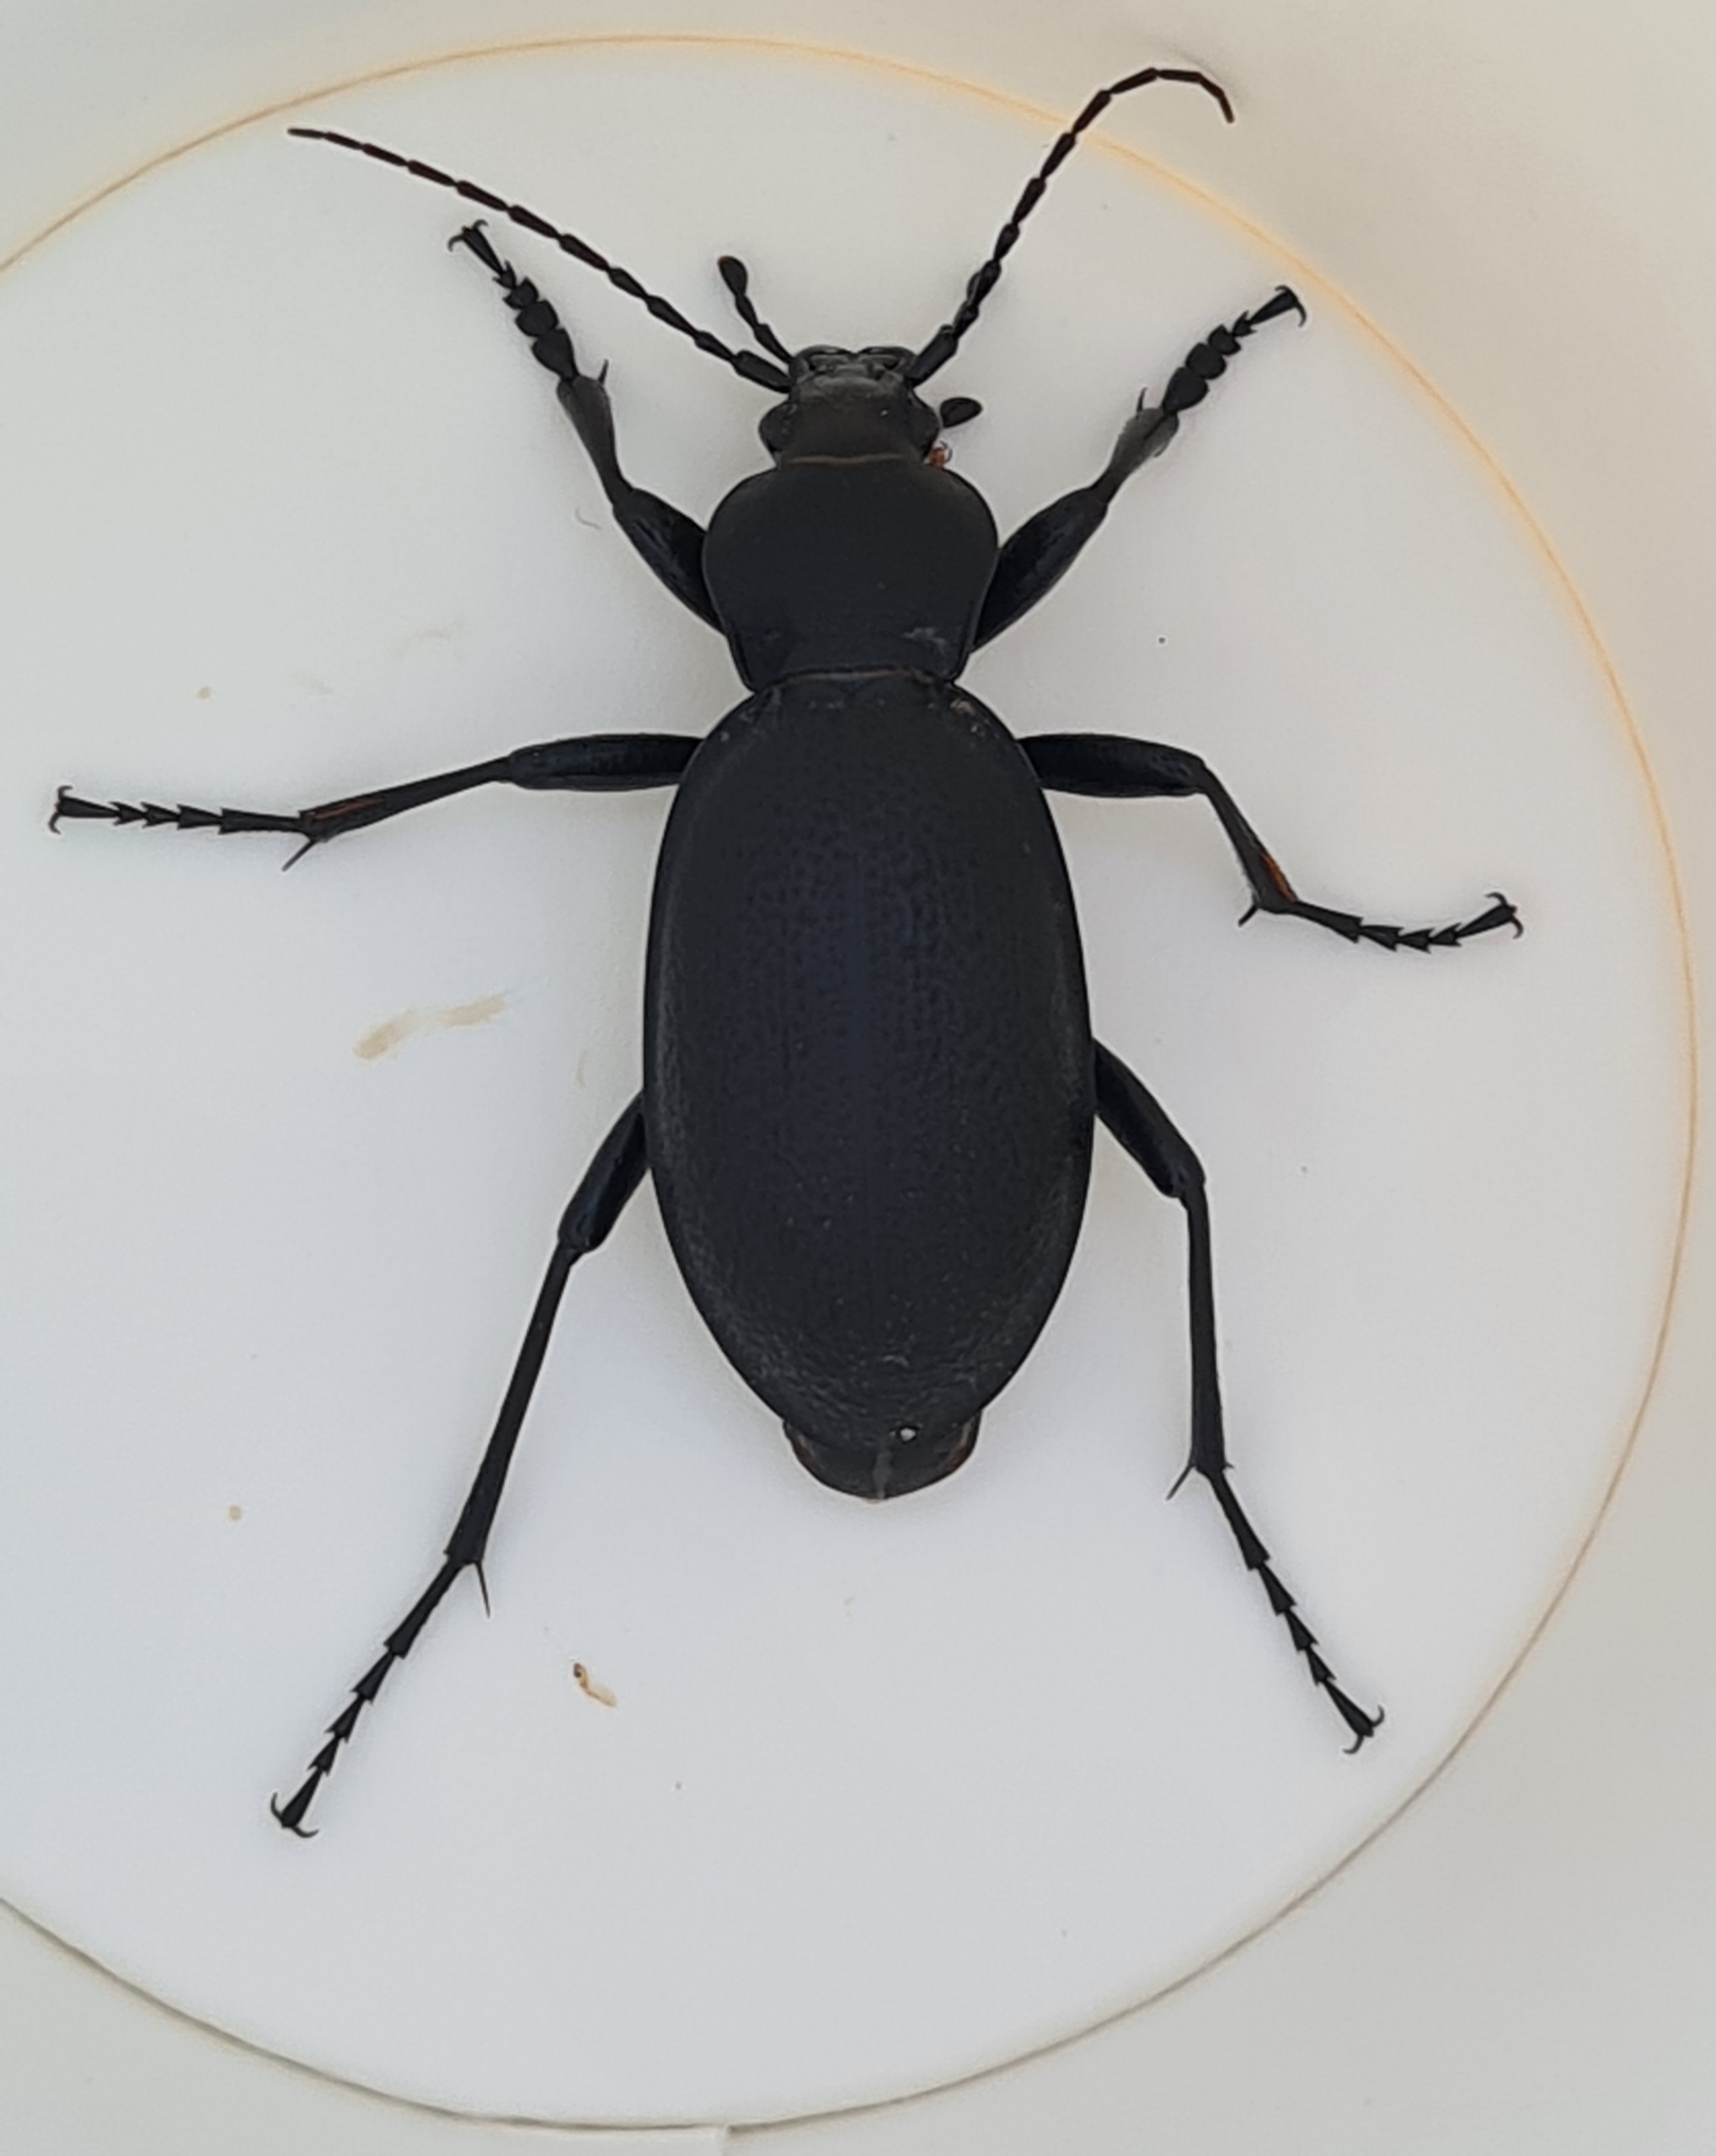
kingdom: Animalia
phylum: Arthropoda
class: Insecta
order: Coleoptera
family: Carabidae
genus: Carabus
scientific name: Carabus coriaceus
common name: Læderløber
